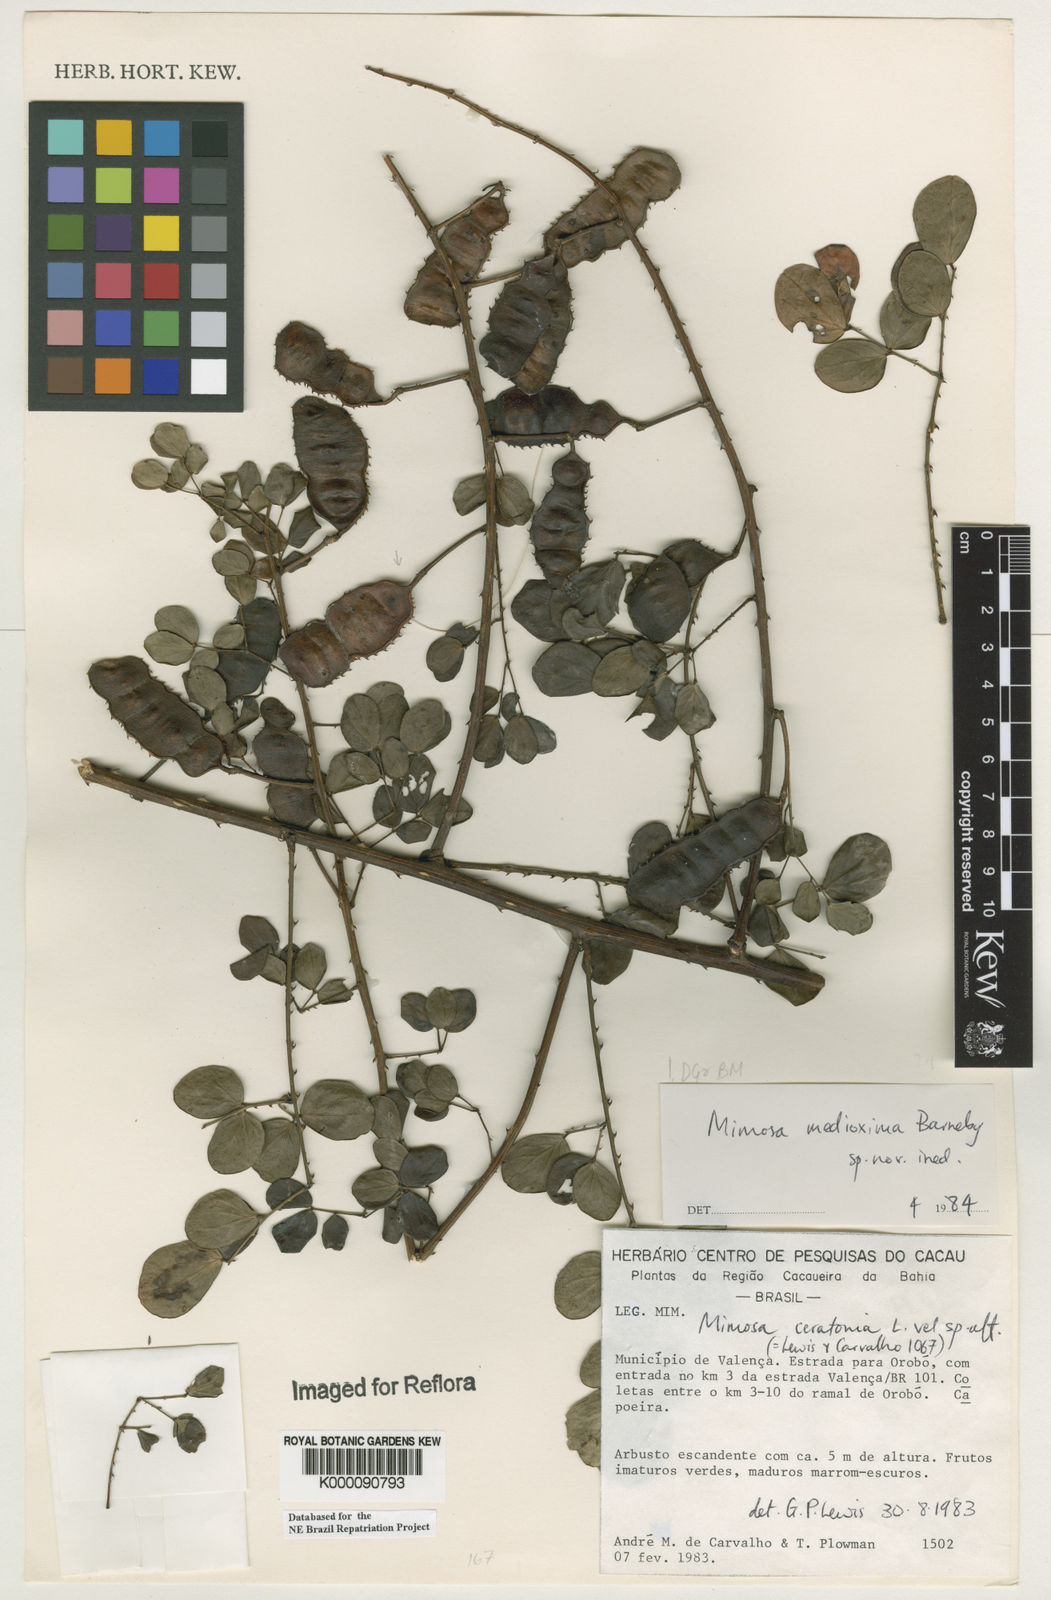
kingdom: Plantae
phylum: Tracheophyta
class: Magnoliopsida
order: Fabales
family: Fabaceae
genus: Mimosa
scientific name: Mimosa medioxima
